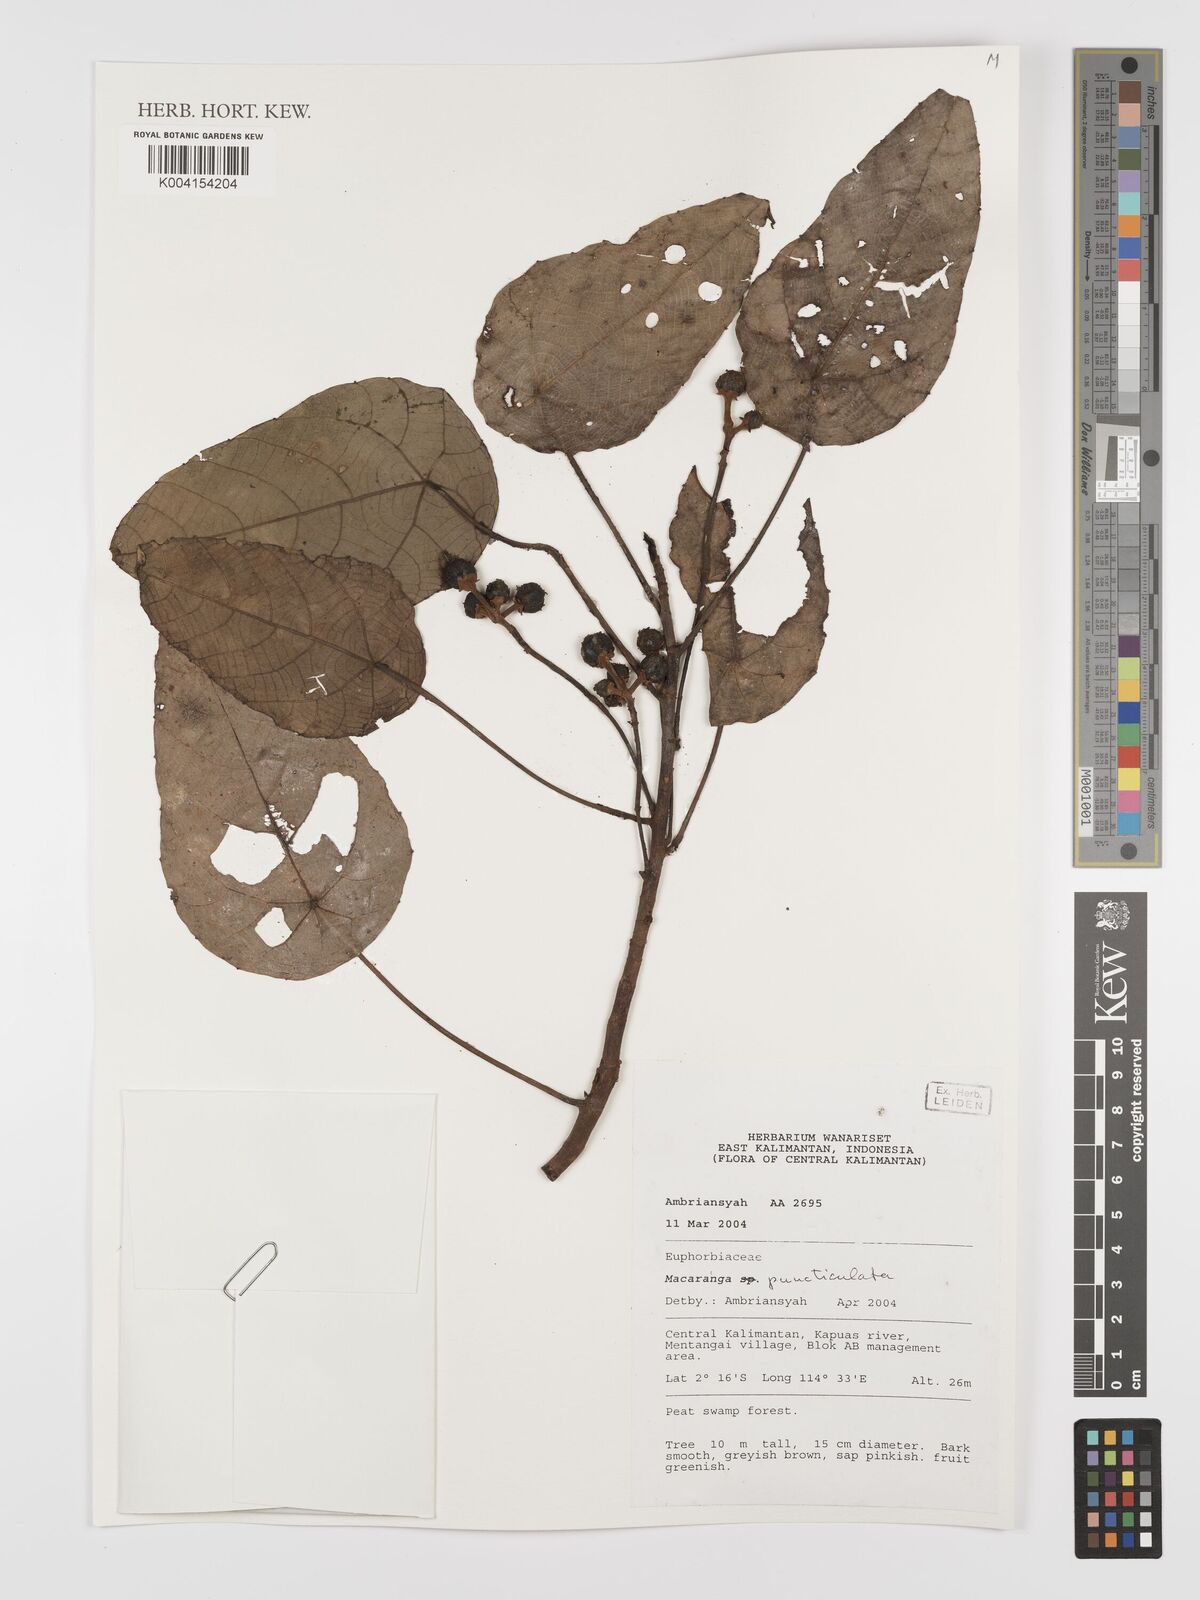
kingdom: Plantae
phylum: Tracheophyta
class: Magnoliopsida
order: Malpighiales
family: Euphorbiaceae
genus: Macaranga
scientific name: Macaranga puncticulata
